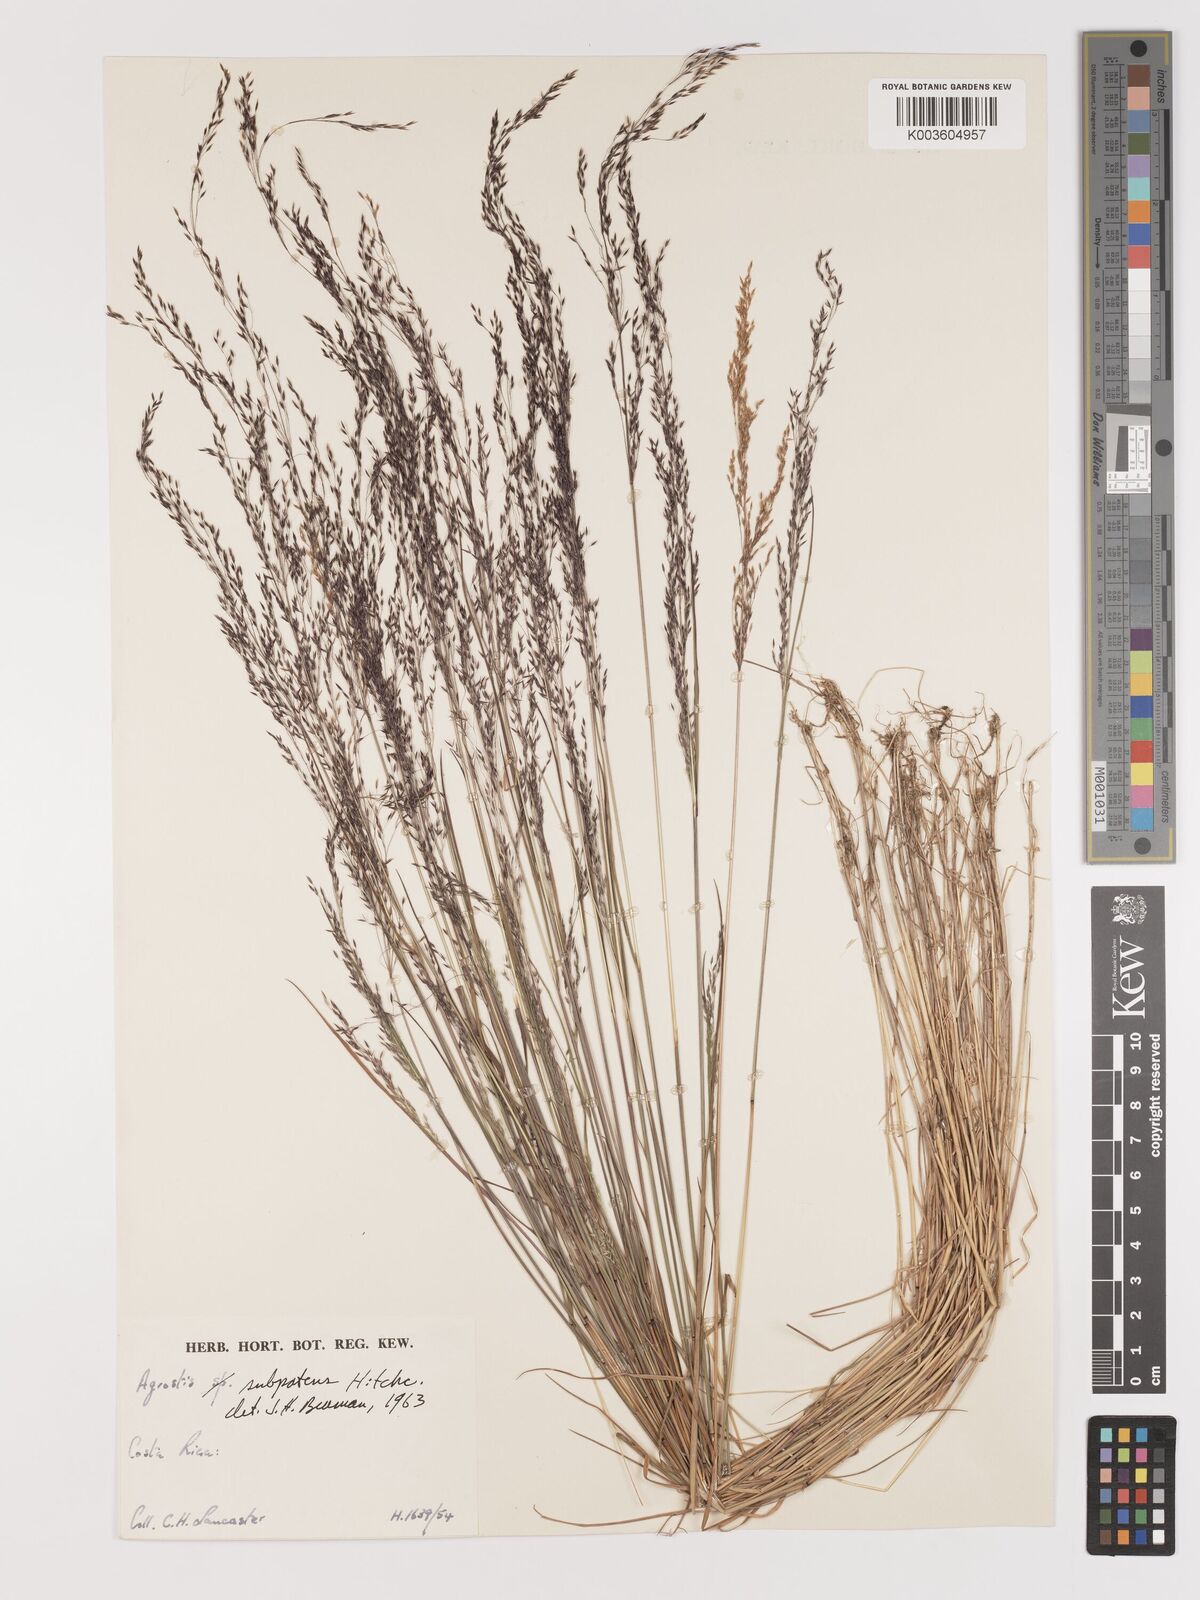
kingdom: Plantae
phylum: Tracheophyta
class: Liliopsida
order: Poales
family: Poaceae
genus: Agrostis
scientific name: Agrostis subpatens
